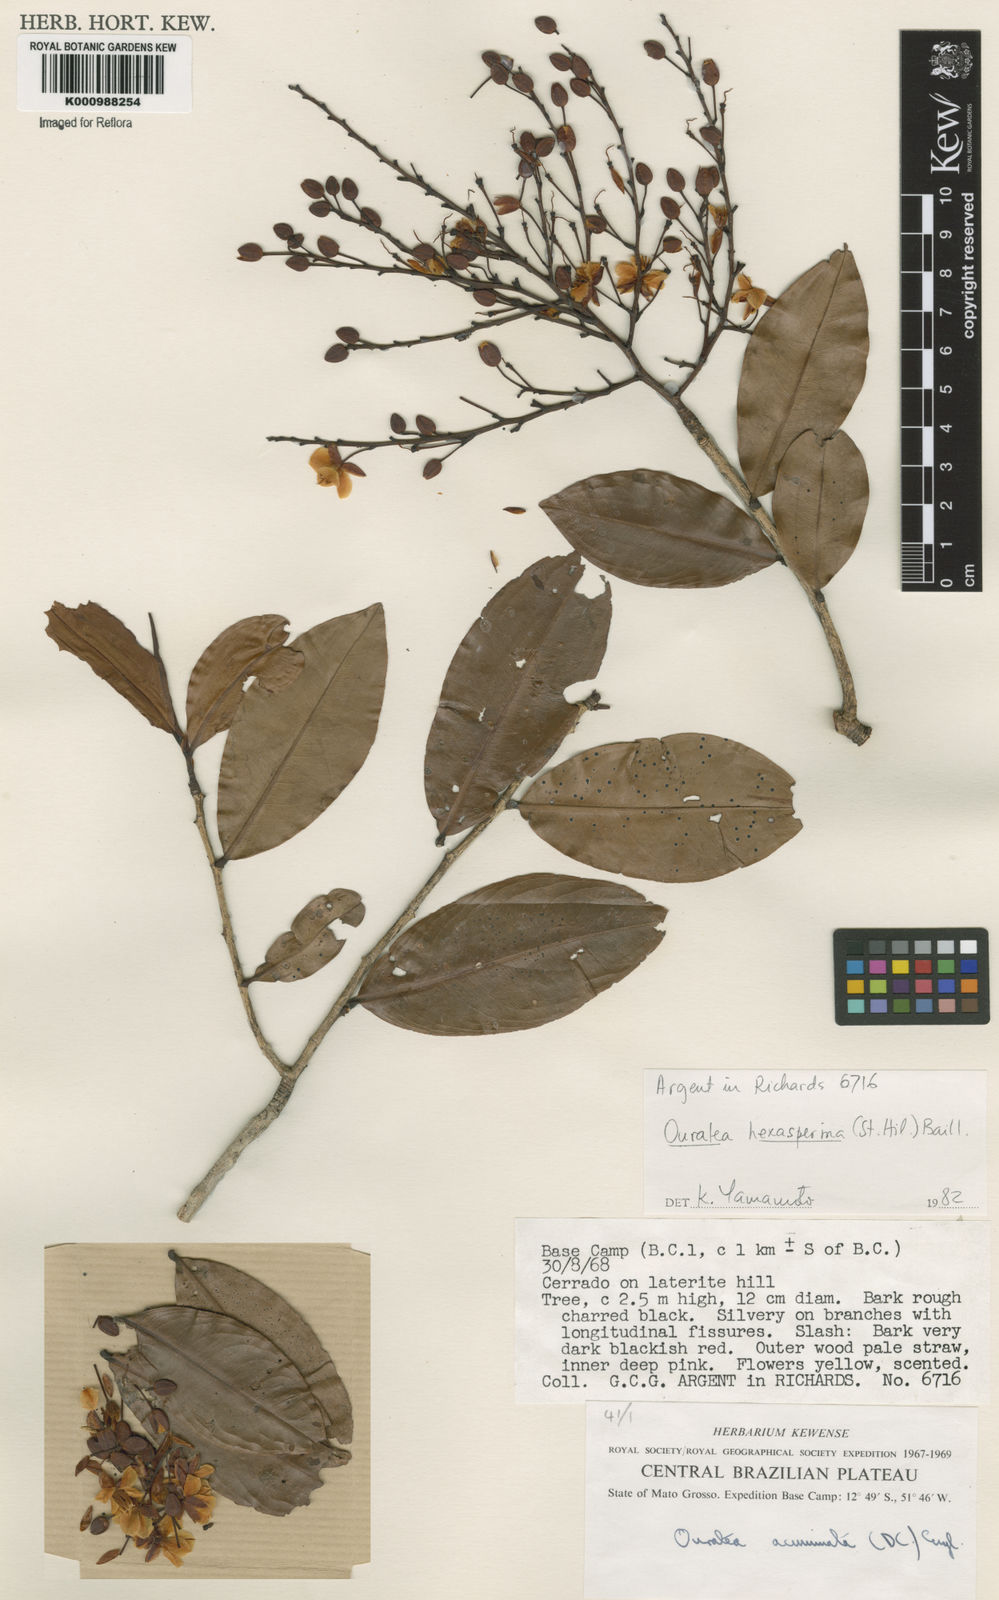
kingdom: Plantae
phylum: Tracheophyta
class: Magnoliopsida
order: Malpighiales
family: Ochnaceae
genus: Ouratea
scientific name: Ouratea hexasperma
